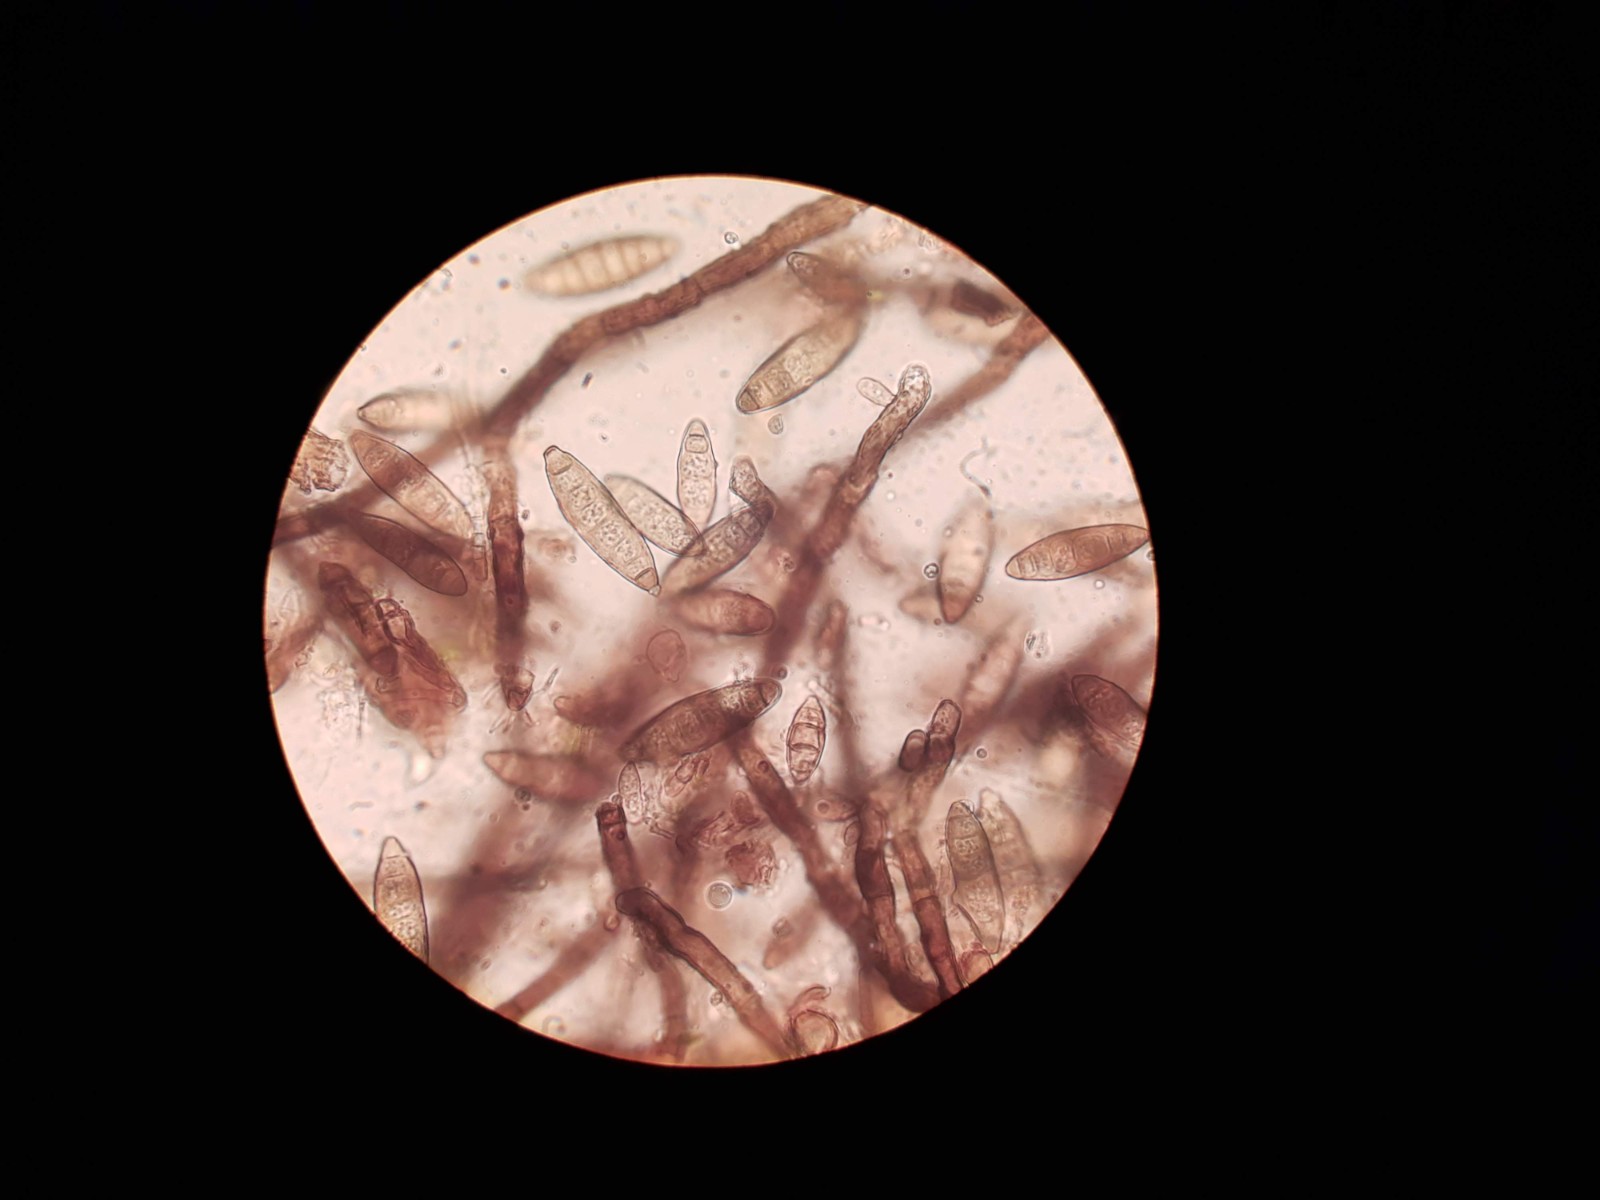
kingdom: Fungi
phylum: Ascomycota
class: Leotiomycetes
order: Helotiales
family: Helotiaceae
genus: Strossmayeria
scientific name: Strossmayeria basitricha
